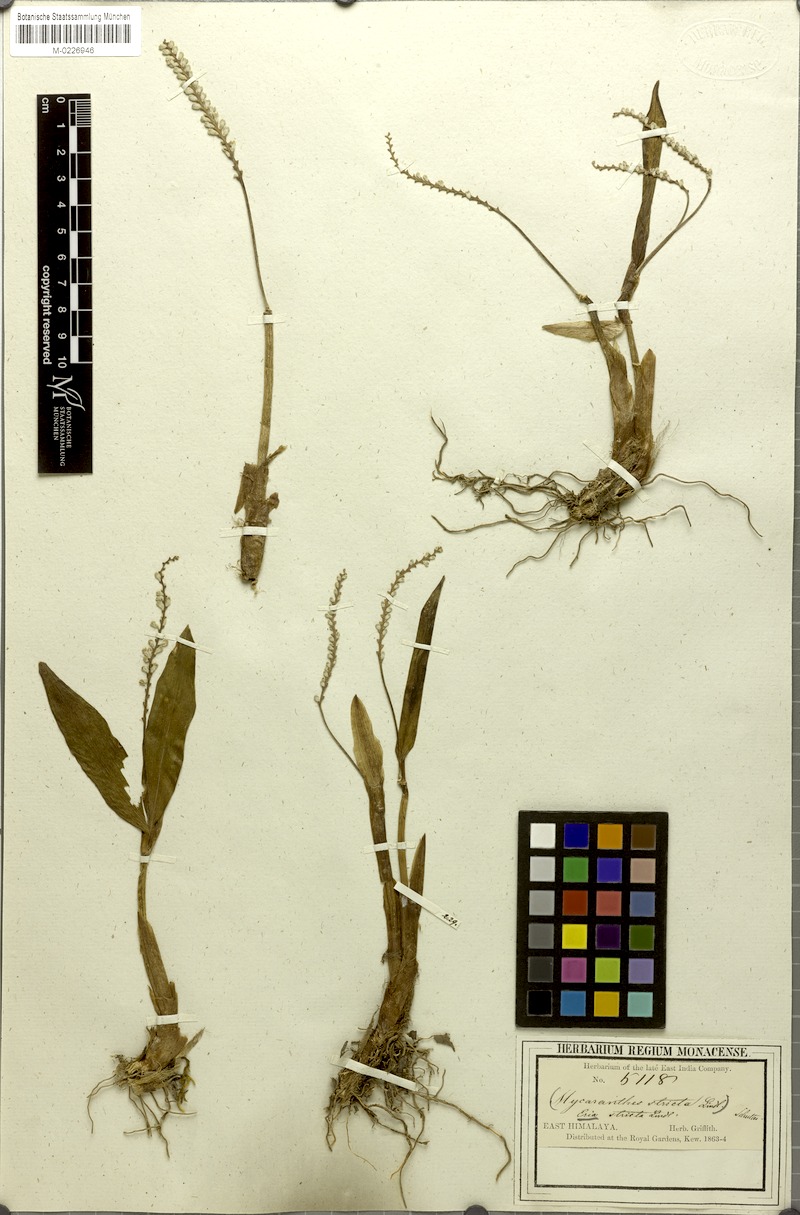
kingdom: Plantae
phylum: Tracheophyta
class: Liliopsida
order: Asparagales
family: Orchidaceae
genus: Cryptochilus
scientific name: Cryptochilus strictus
